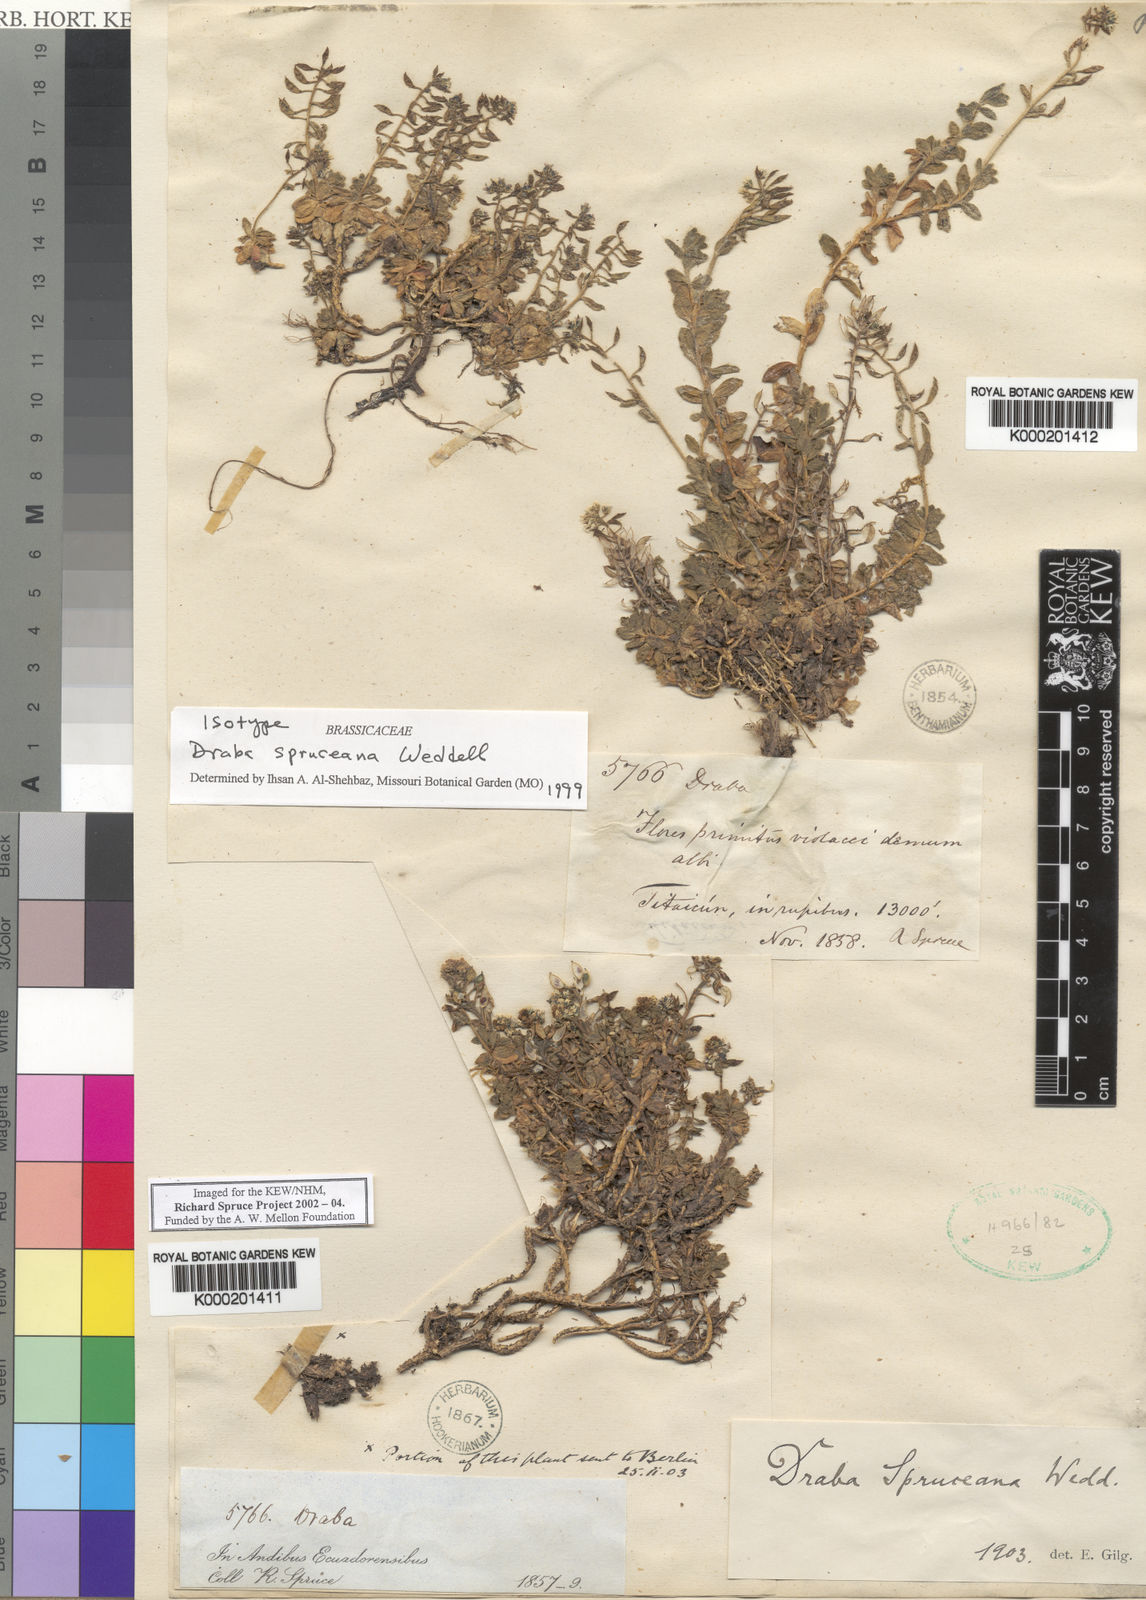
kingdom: Plantae
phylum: Tracheophyta
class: Magnoliopsida
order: Brassicales
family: Brassicaceae
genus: Draba
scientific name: Draba spruceana
